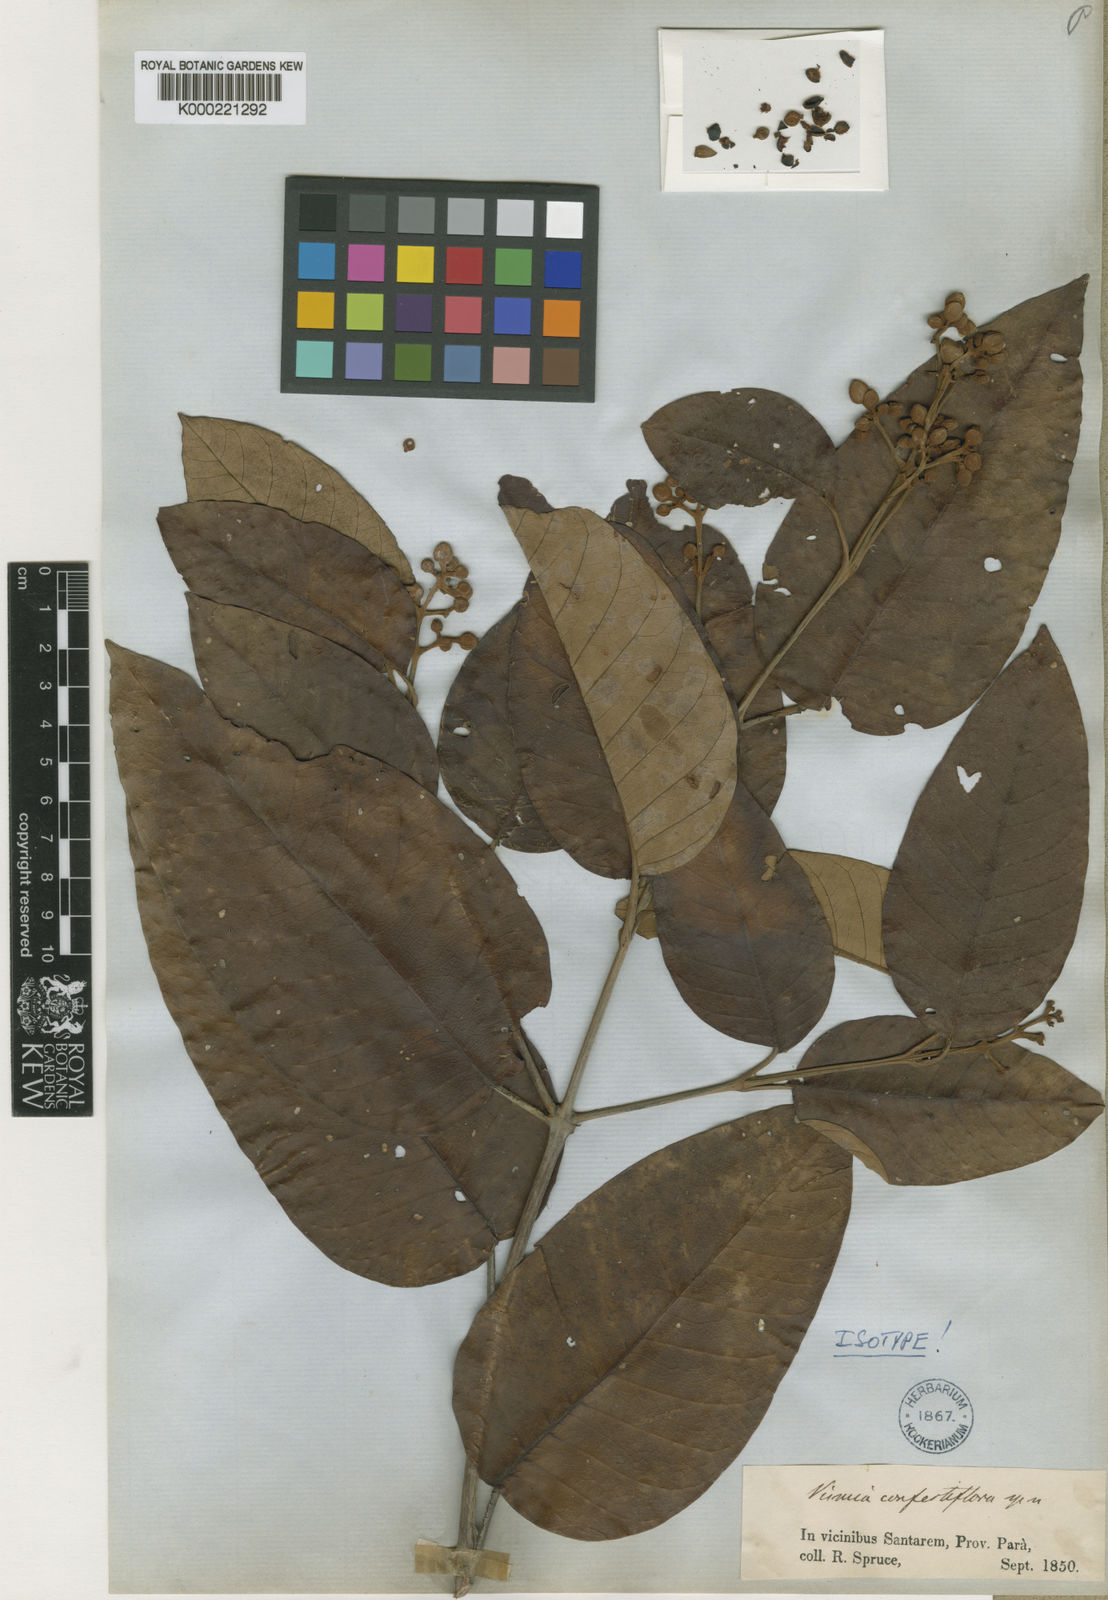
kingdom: Plantae
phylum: Tracheophyta
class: Magnoliopsida
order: Malpighiales
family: Hypericaceae
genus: Vismia
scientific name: Vismia baccifera
